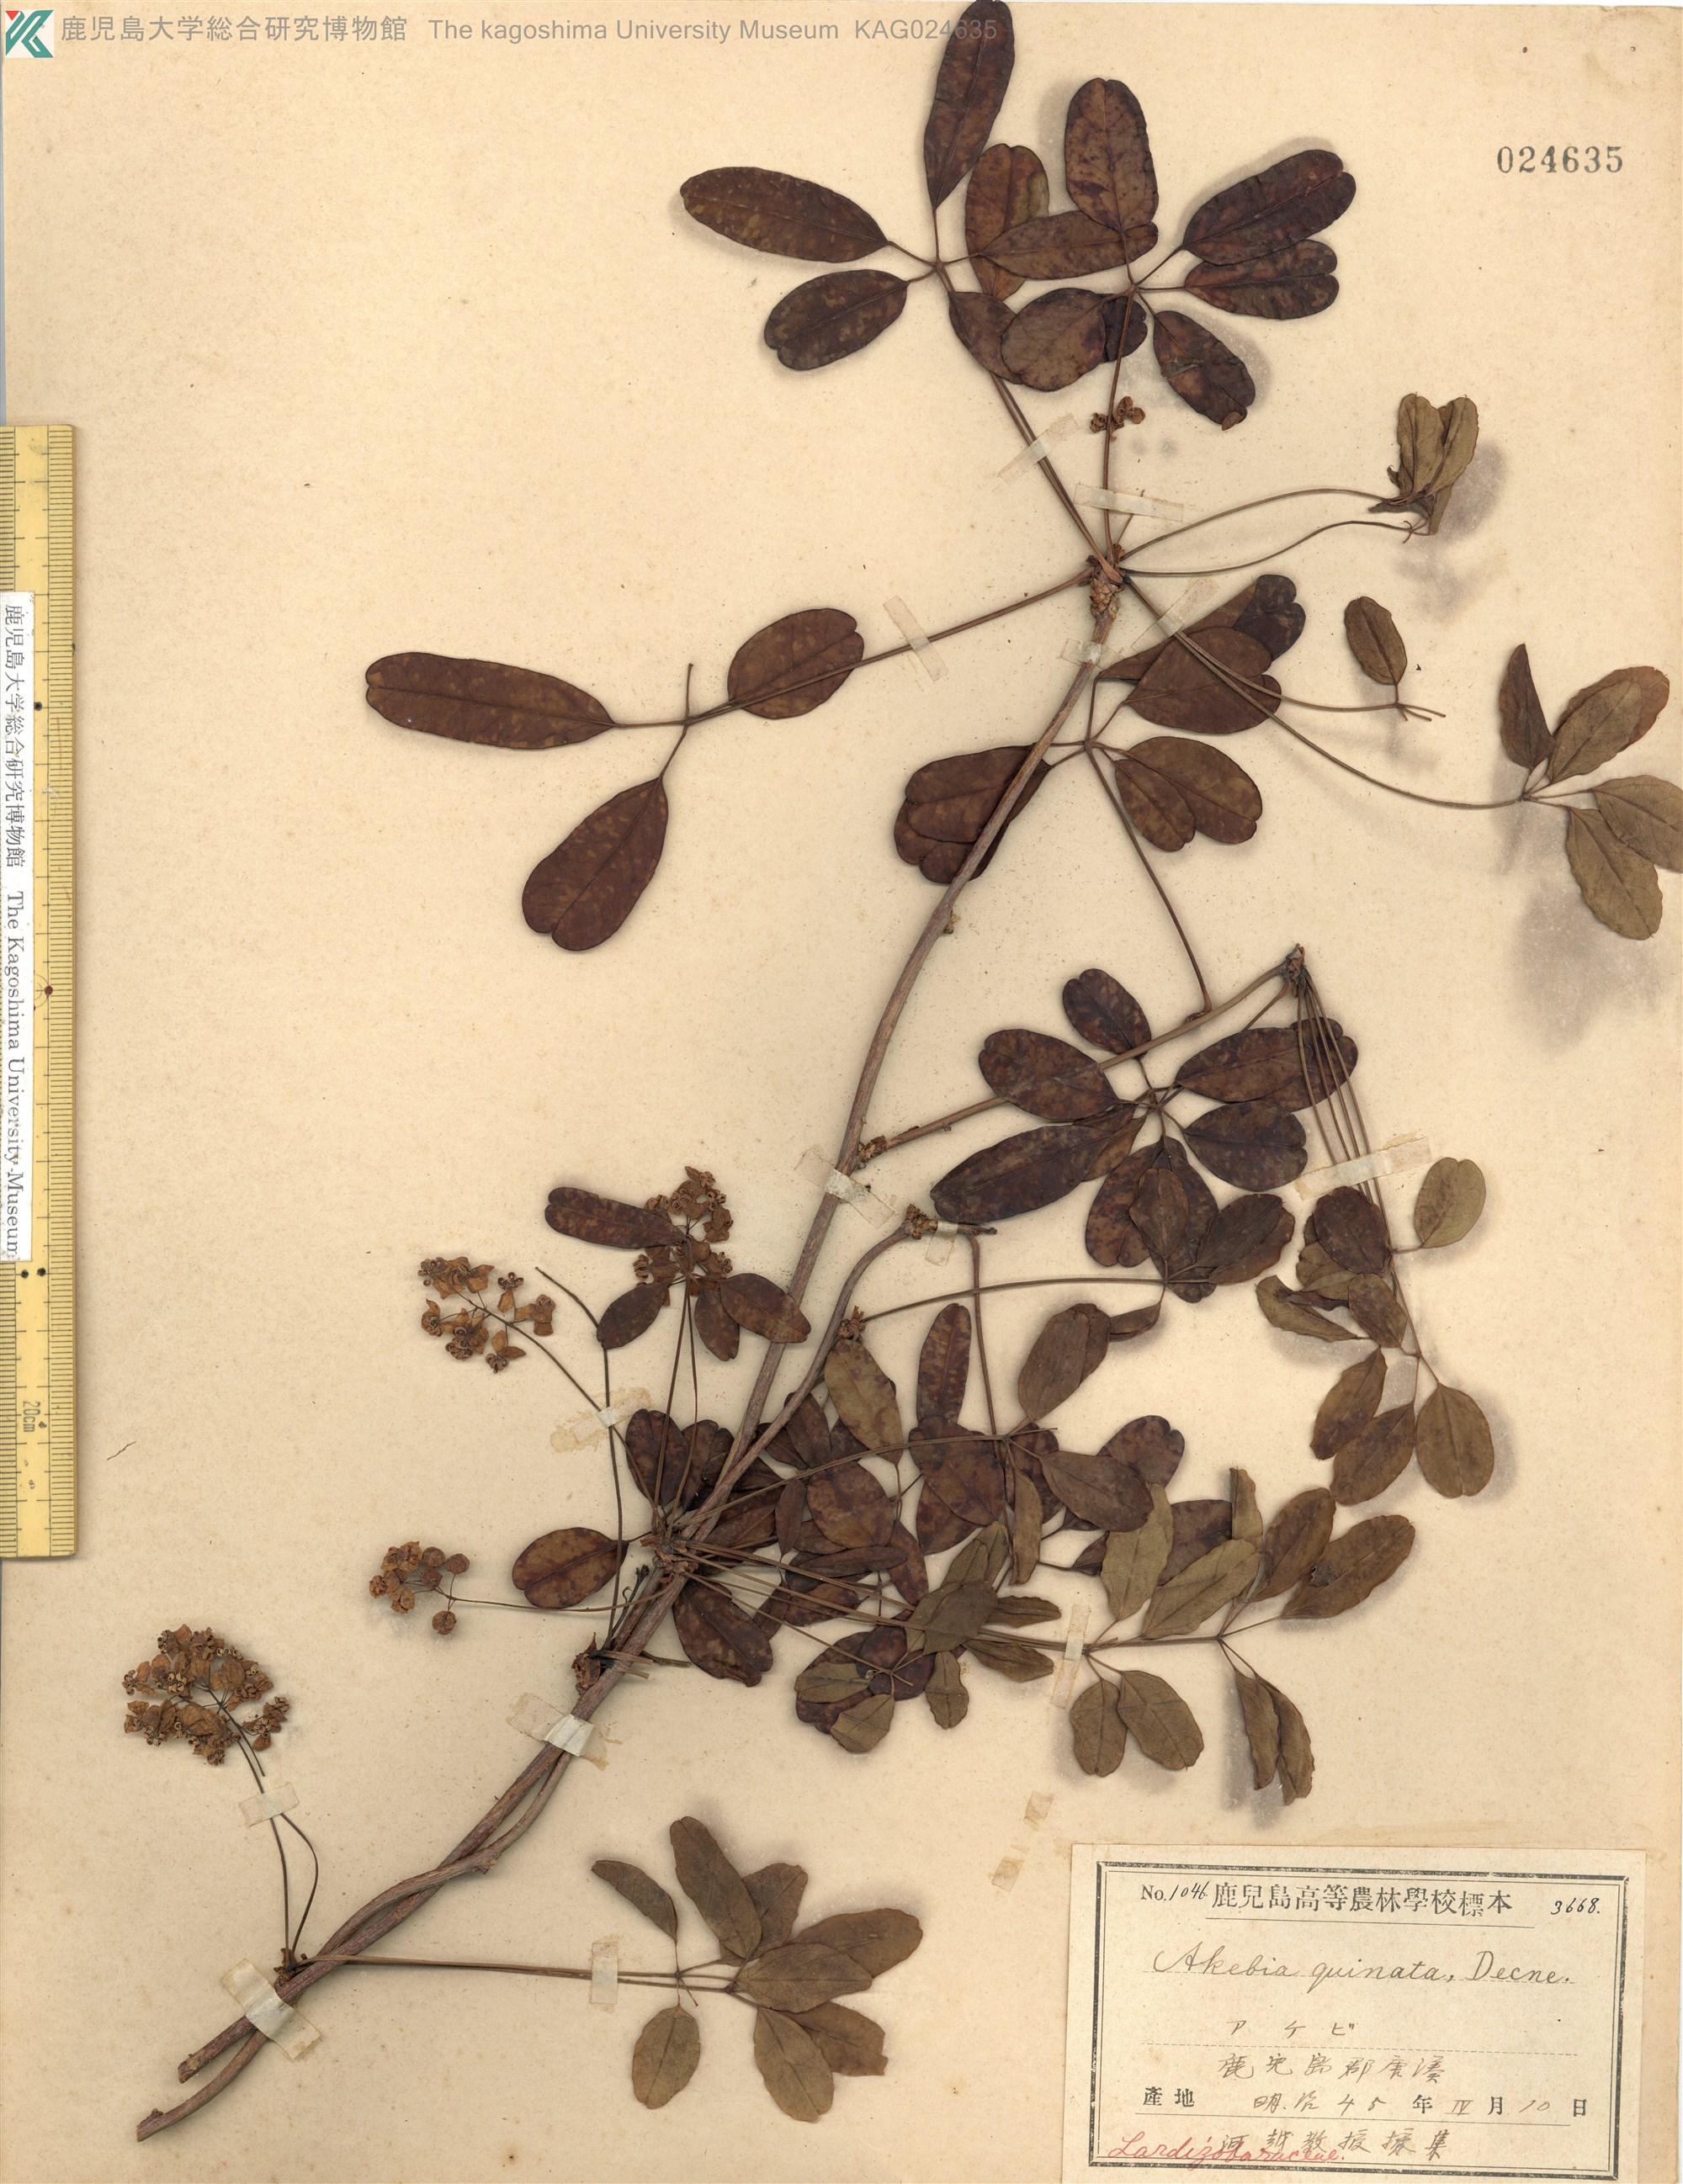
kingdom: Plantae
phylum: Tracheophyta
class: Magnoliopsida
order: Ranunculales
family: Lardizabalaceae
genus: Akebia
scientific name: Akebia quinata
